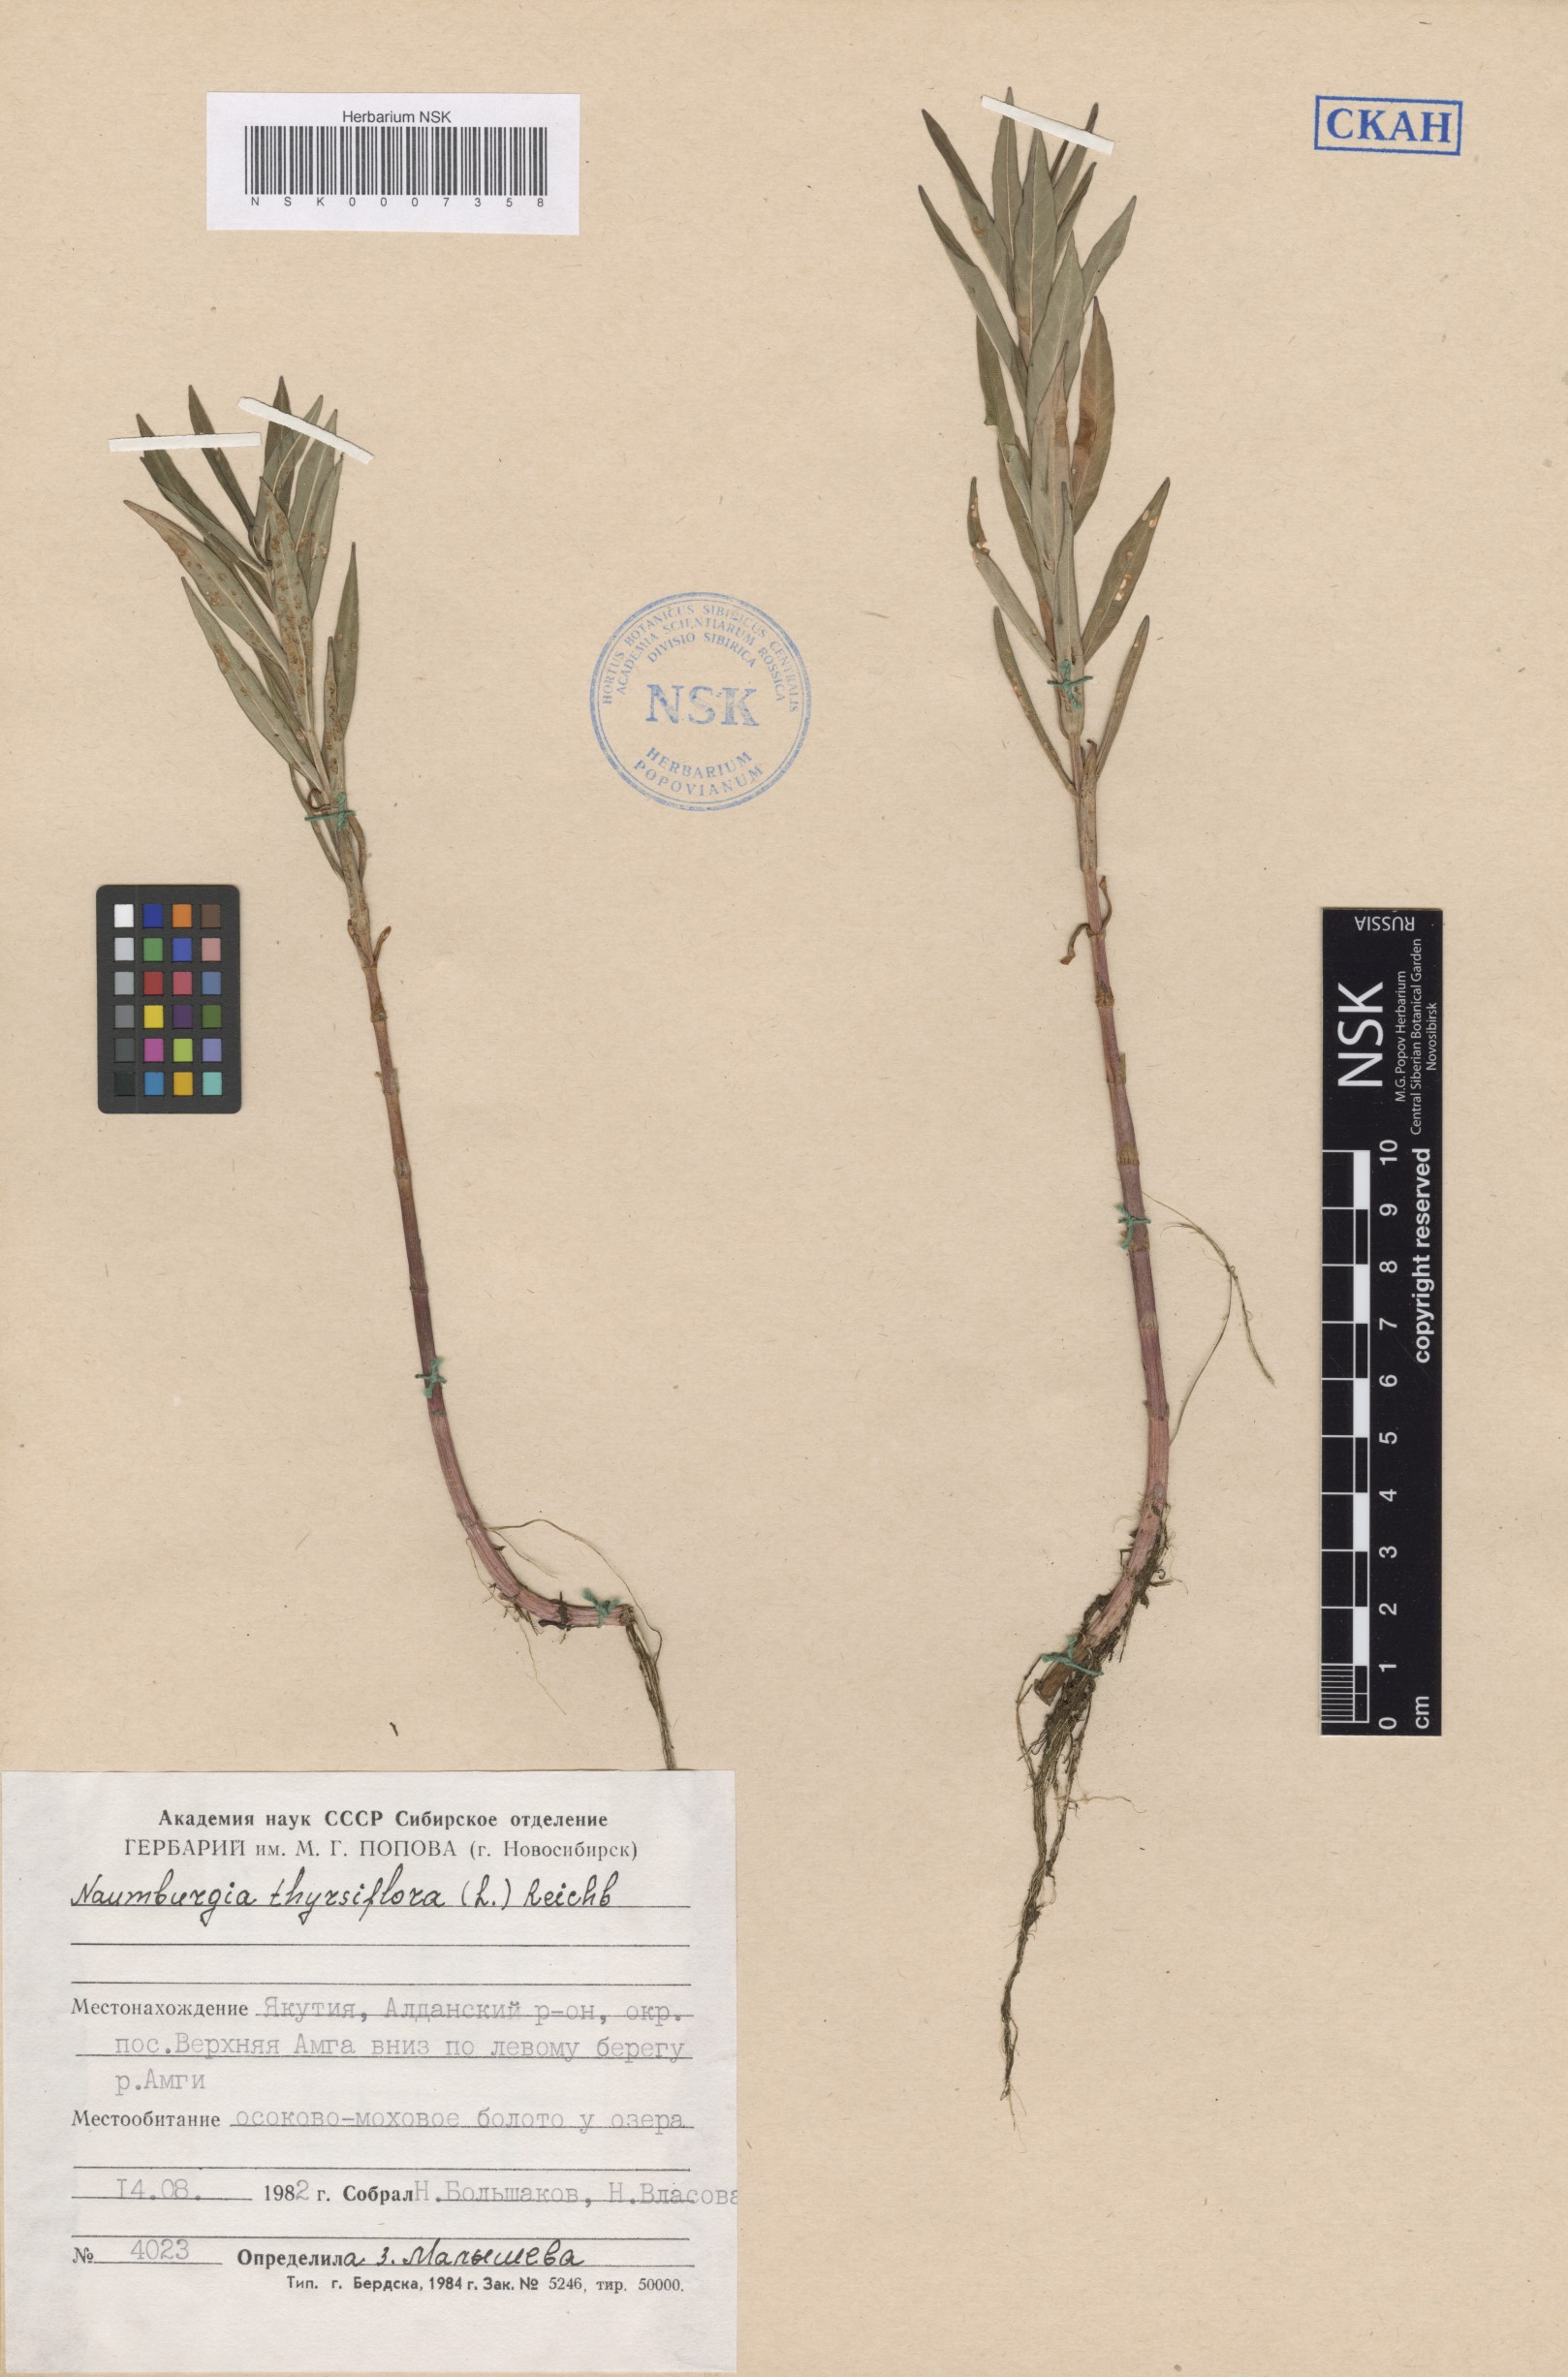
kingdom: Plantae
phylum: Tracheophyta
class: Magnoliopsida
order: Ericales
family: Primulaceae
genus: Lysimachia
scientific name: Lysimachia thyrsiflora
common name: Tufted loosestrife
